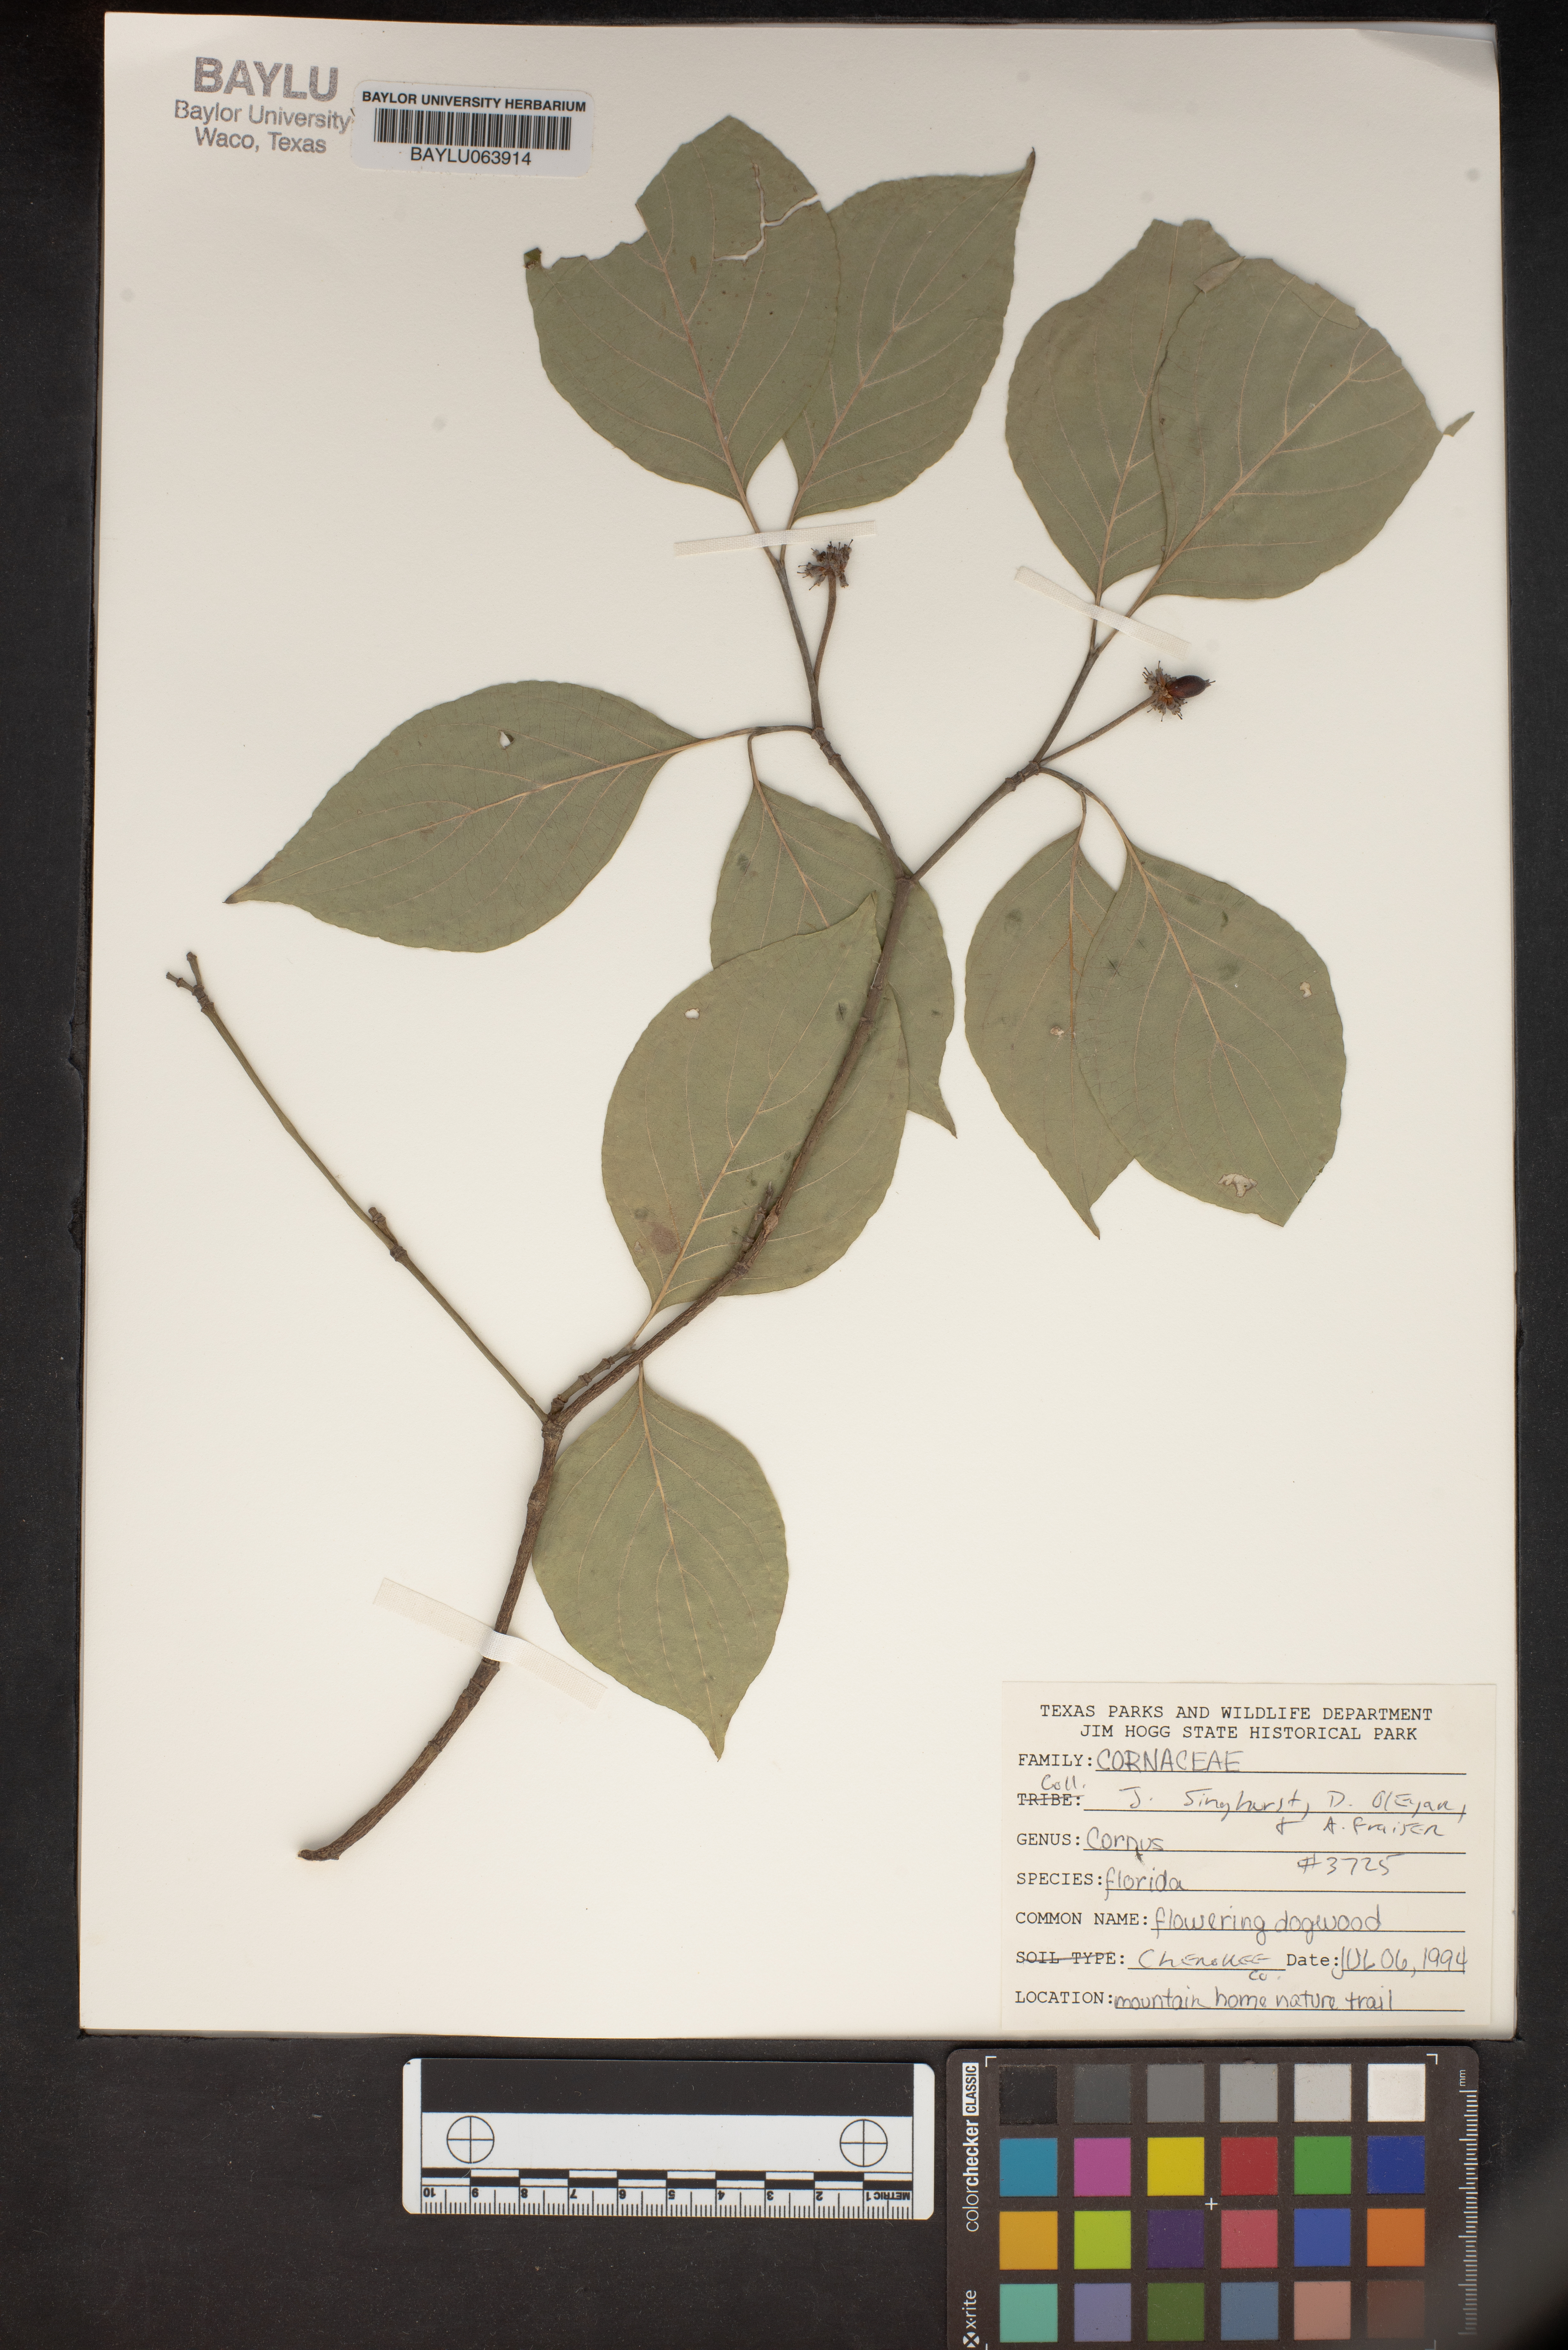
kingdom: Plantae
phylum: Tracheophyta
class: Magnoliopsida
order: Cornales
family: Cornaceae
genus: Cornus
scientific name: Cornus florida
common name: Flowering dogwood
